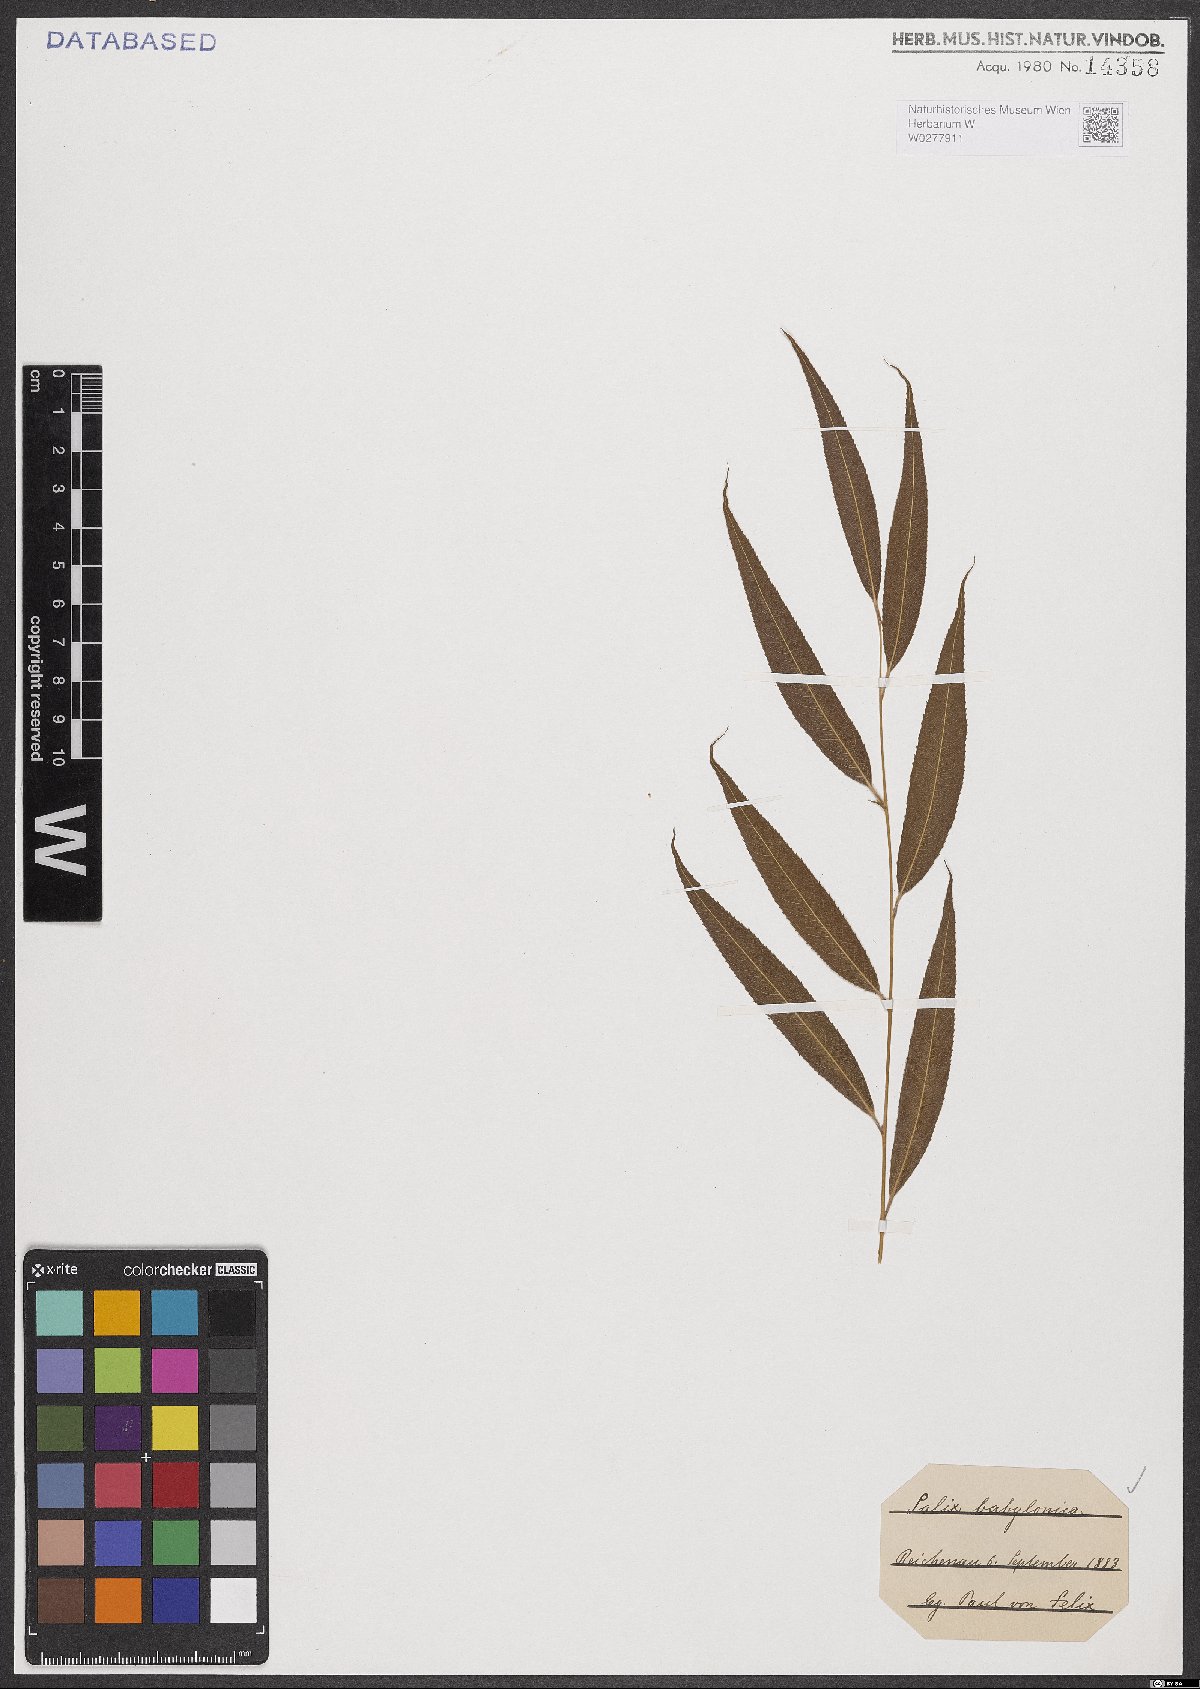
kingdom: Plantae
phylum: Tracheophyta
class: Magnoliopsida
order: Malpighiales
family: Salicaceae
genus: Salix
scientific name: Salix babylonica
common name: Weeping willow
